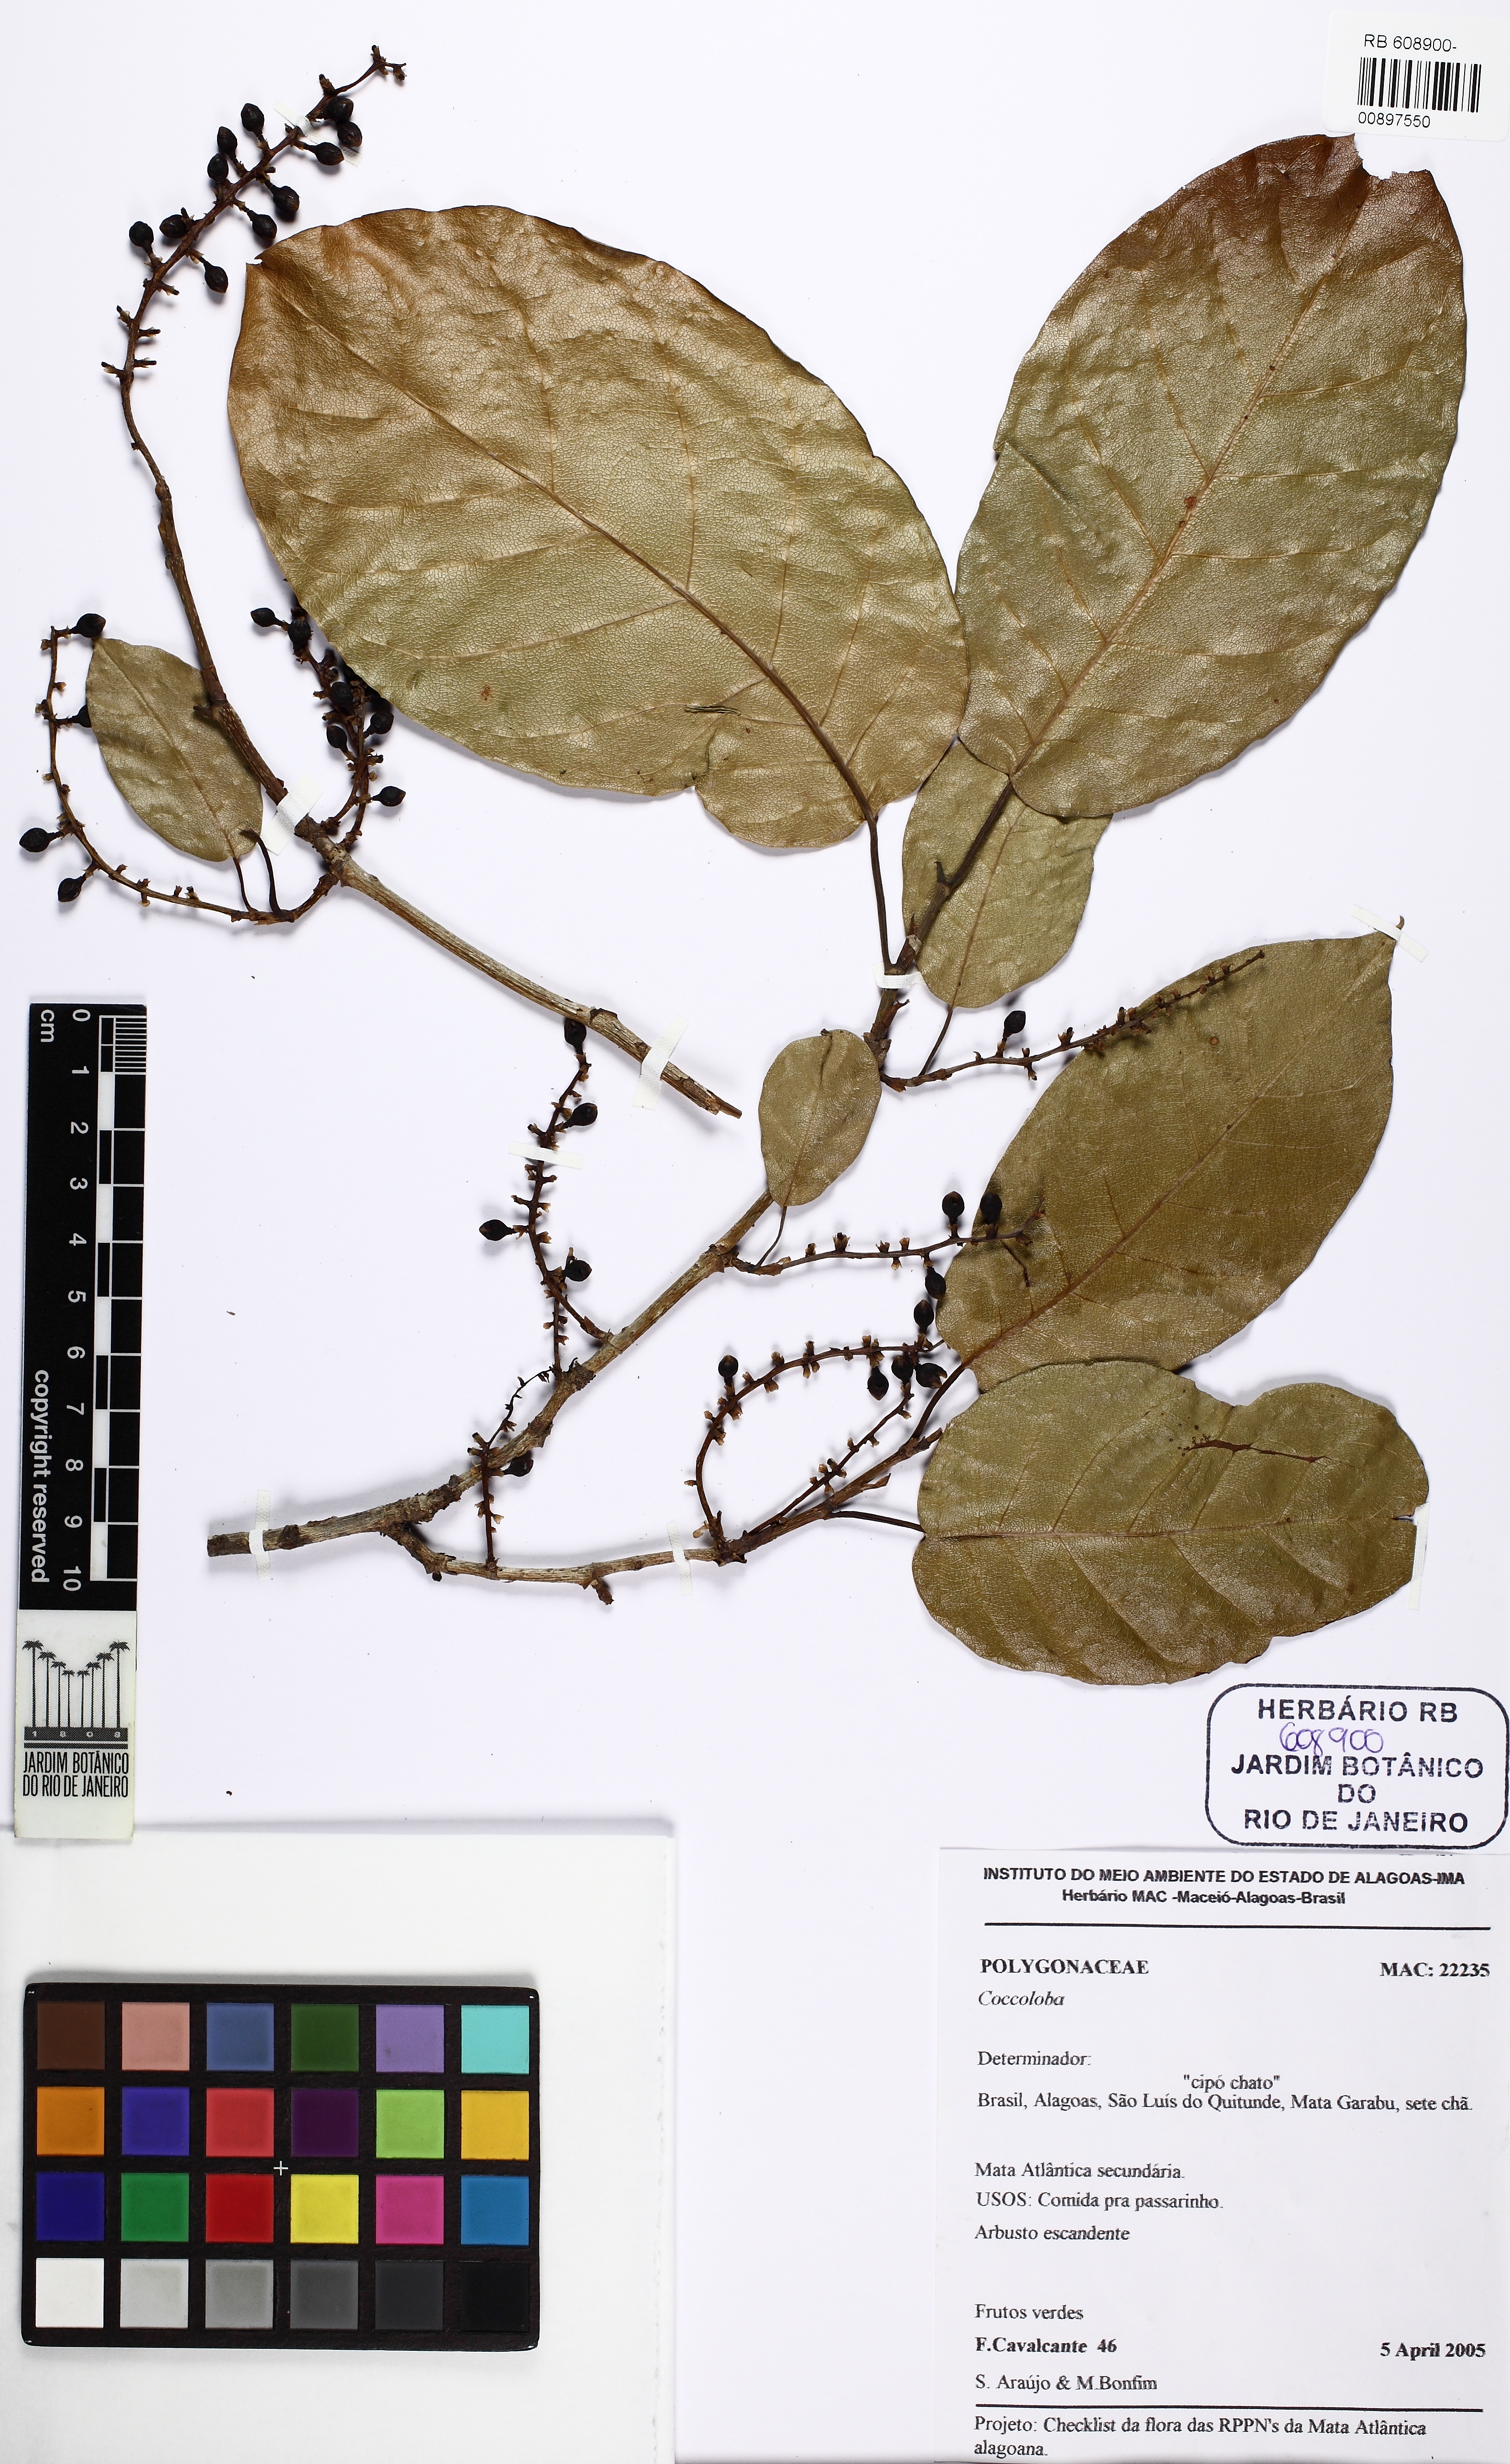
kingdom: Plantae
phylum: Tracheophyta
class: Magnoliopsida
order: Caryophyllales
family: Polygonaceae
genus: Coccoloba
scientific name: Coccoloba
